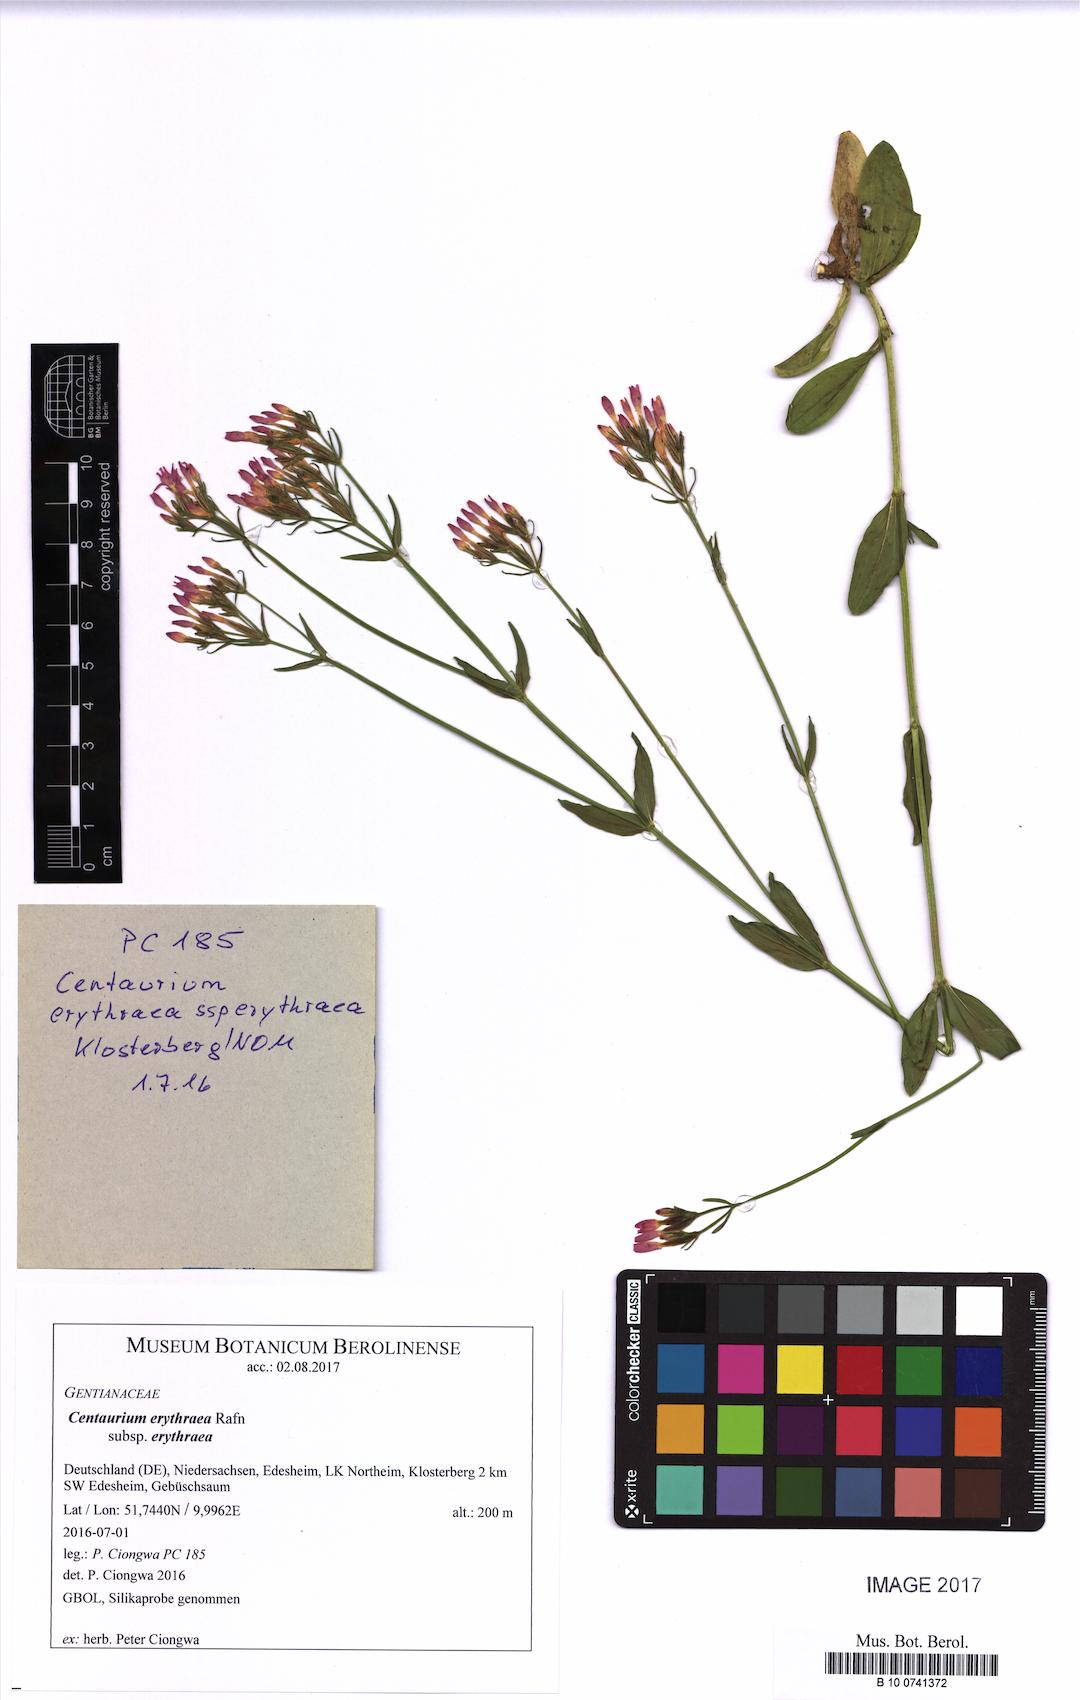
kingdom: Plantae
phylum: Tracheophyta
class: Magnoliopsida
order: Gentianales
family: Gentianaceae
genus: Centaurium
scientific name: Centaurium erythraea
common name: Common centaury
